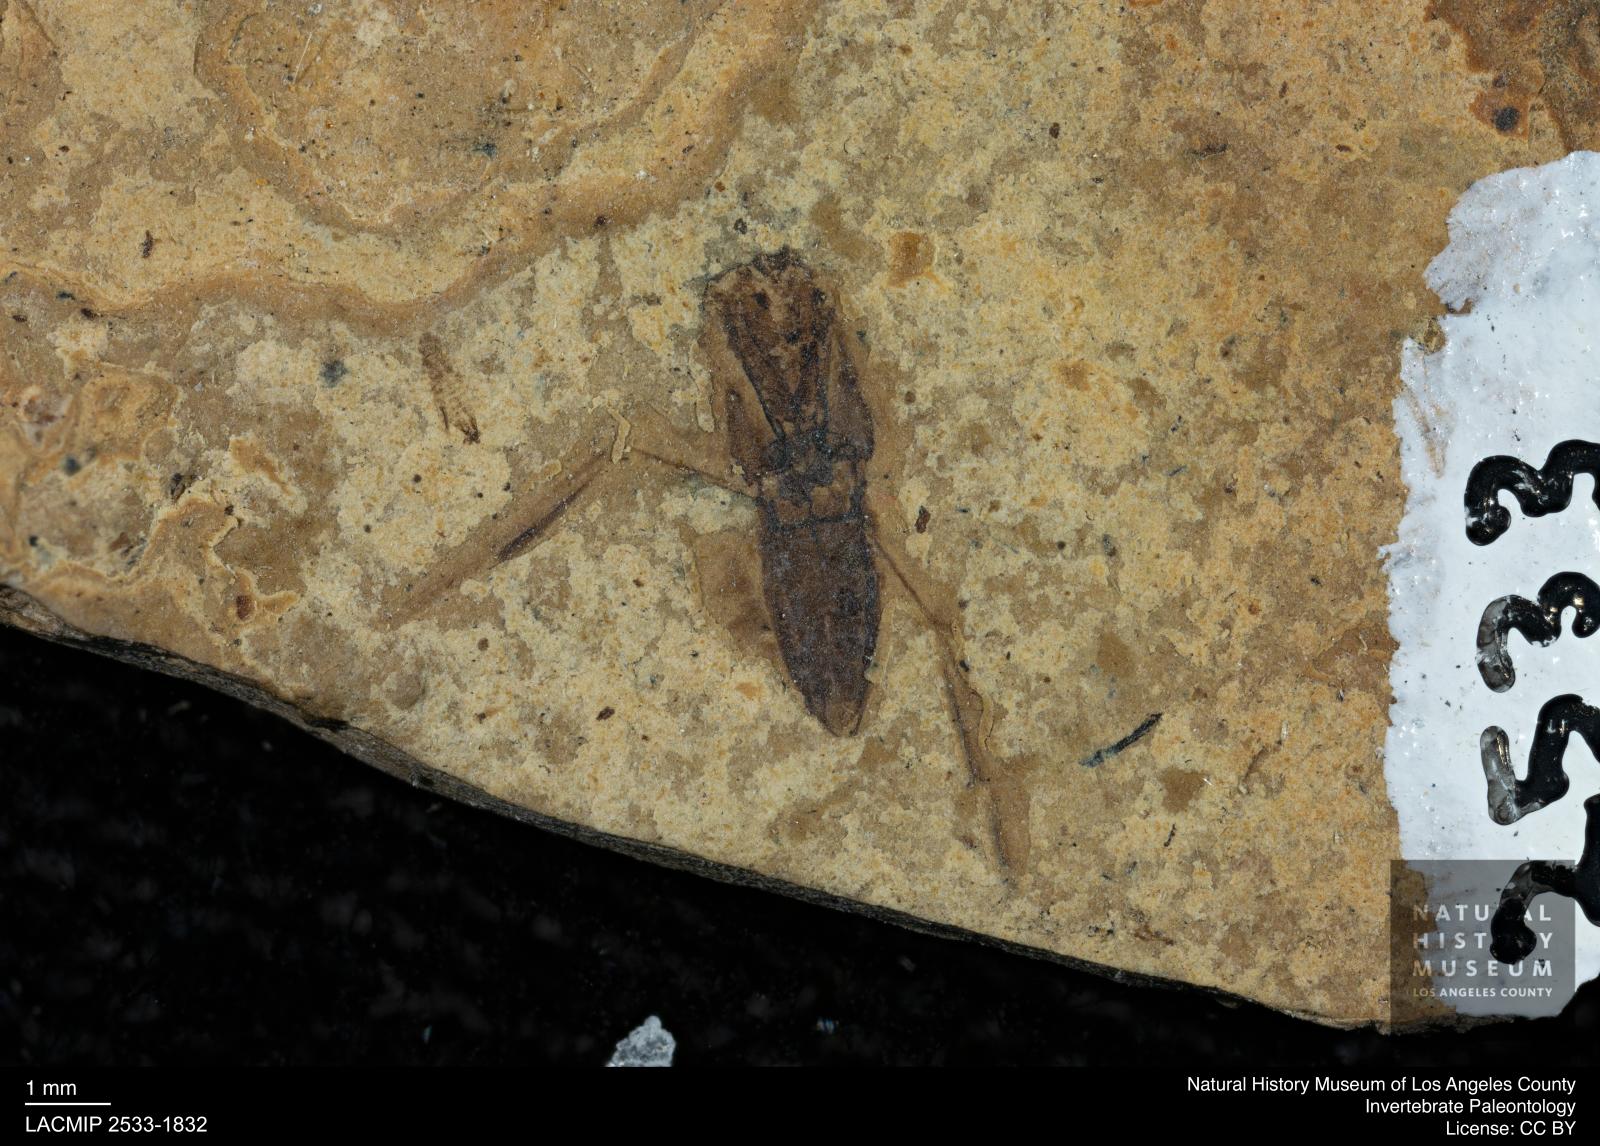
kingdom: Animalia
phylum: Arthropoda
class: Insecta
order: Hemiptera
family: Notonectidae
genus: Notonecta
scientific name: Notonecta
